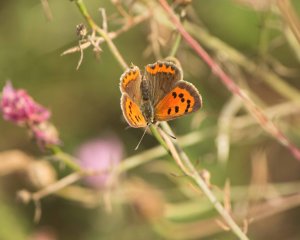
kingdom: Animalia
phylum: Arthropoda
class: Insecta
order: Lepidoptera
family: Lycaenidae
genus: Lycaena
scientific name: Lycaena phlaeas
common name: American Copper
